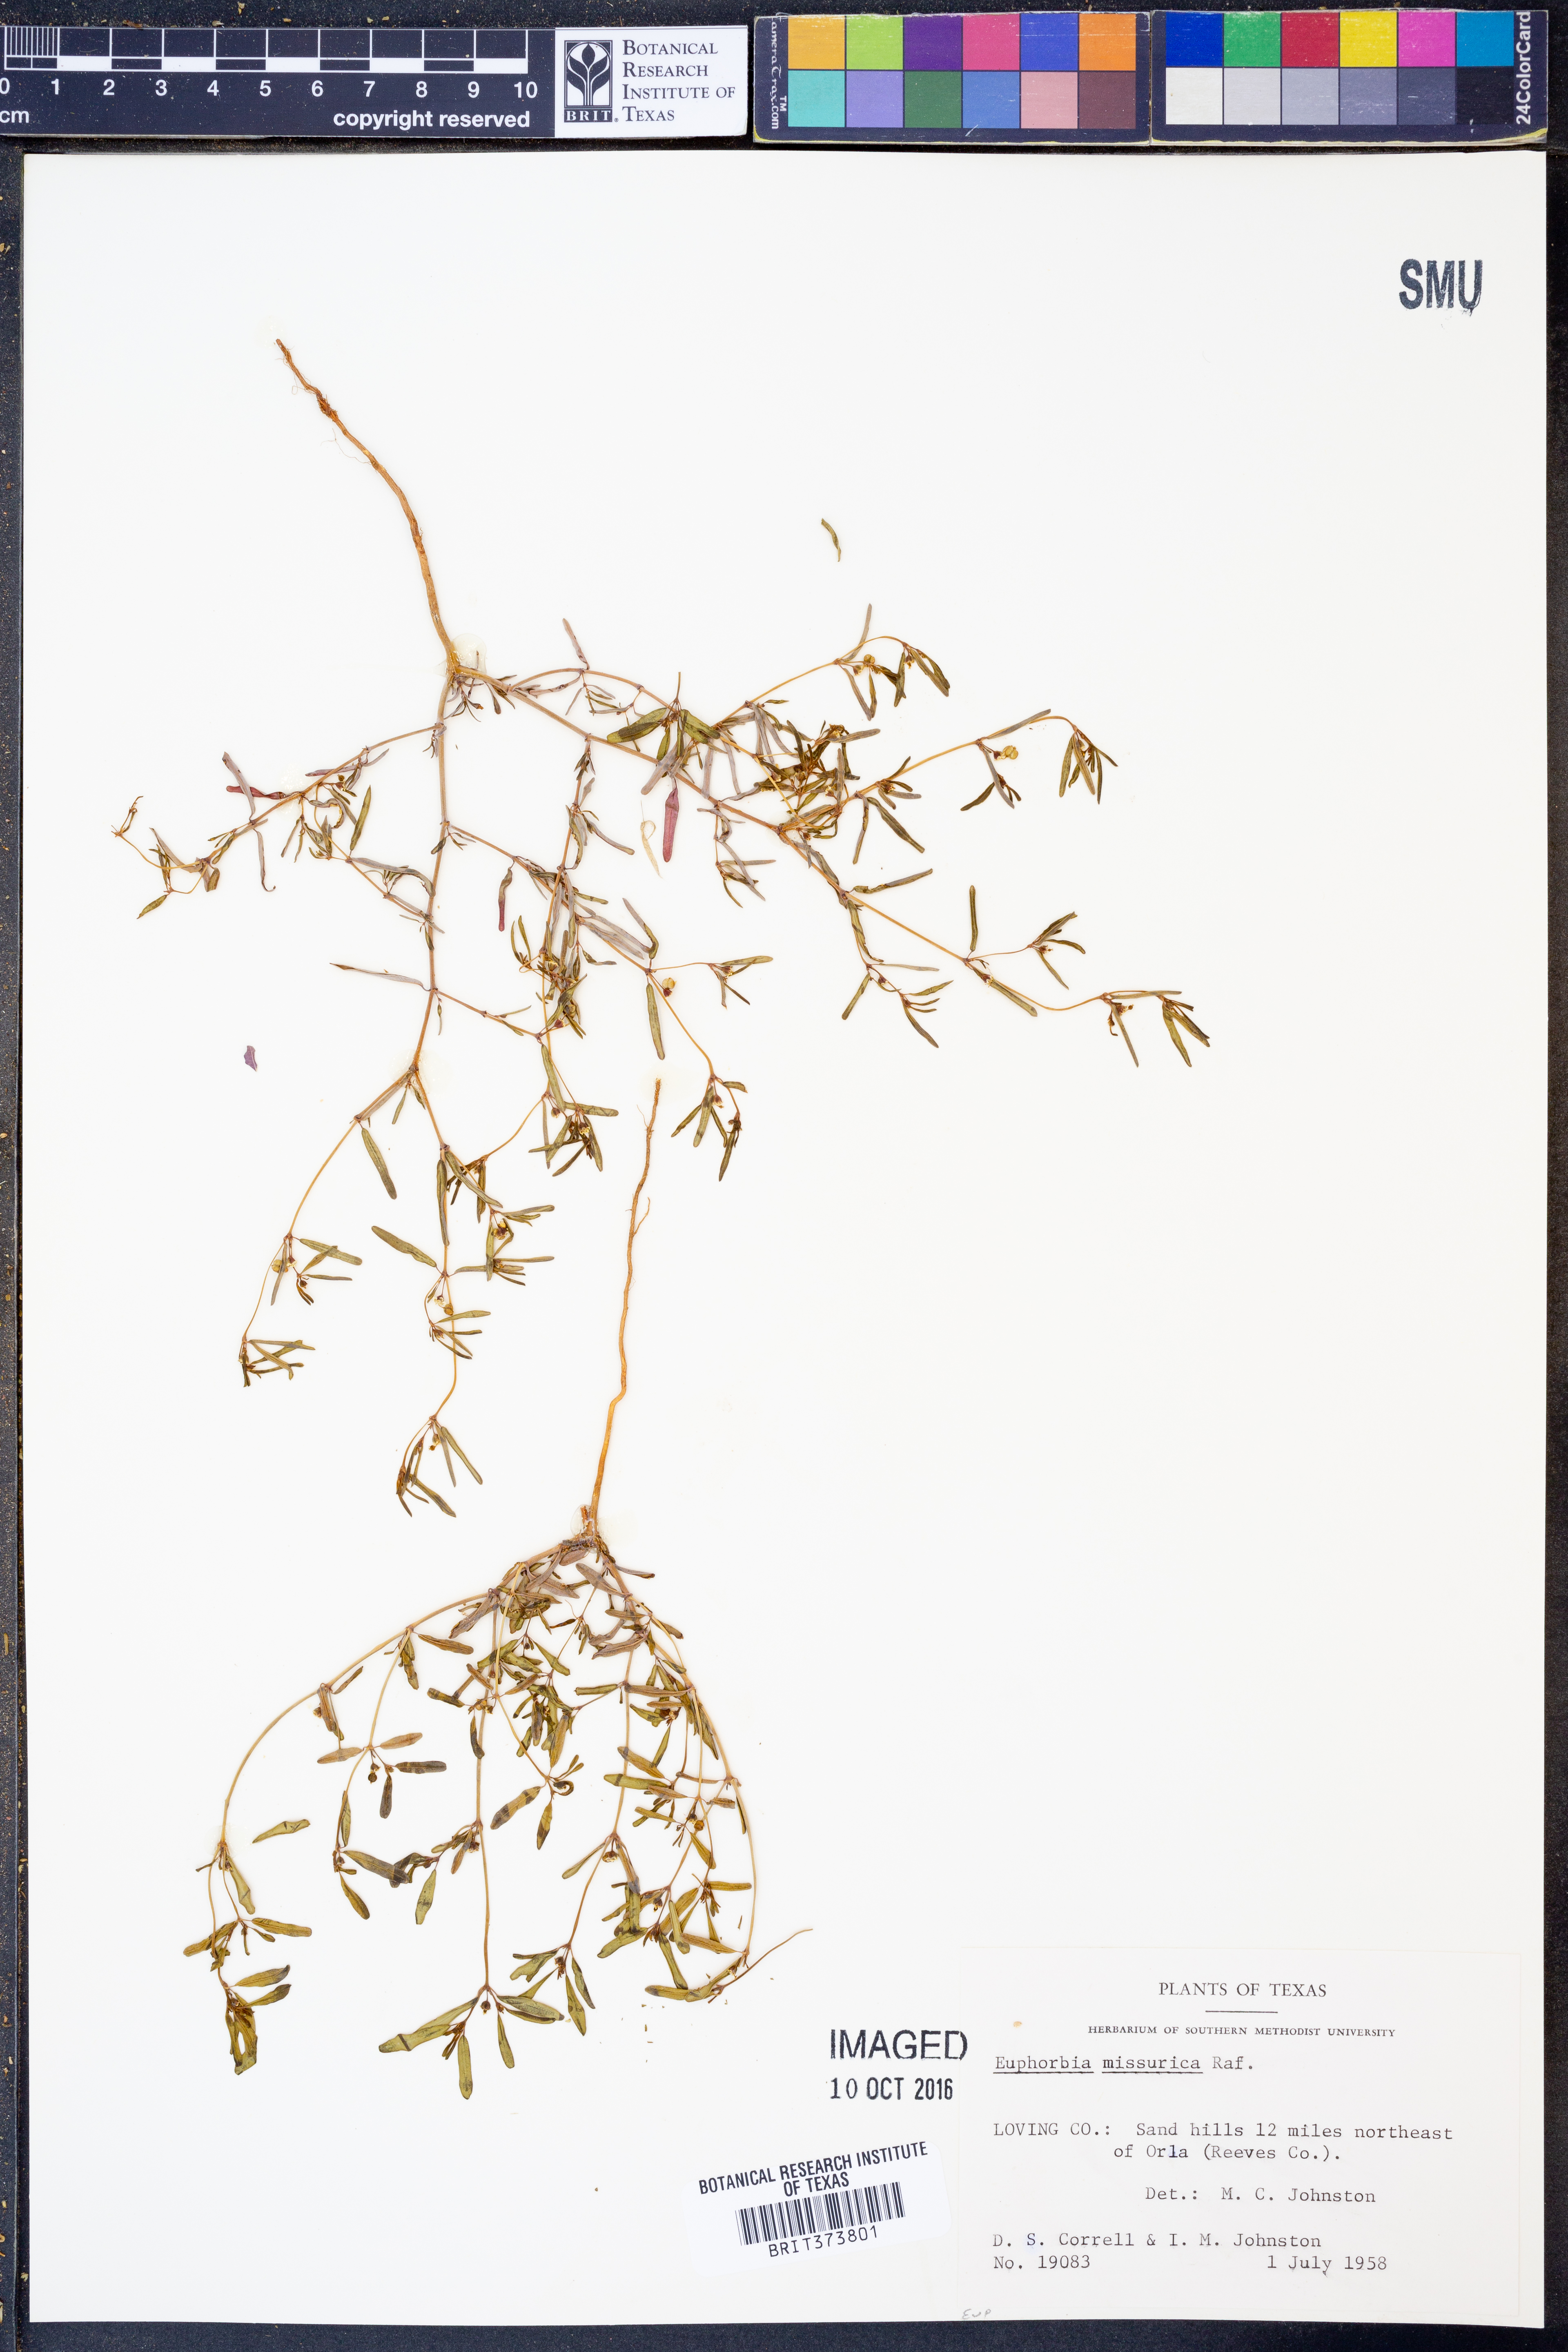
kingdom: Plantae
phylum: Tracheophyta
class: Magnoliopsida
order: Malpighiales
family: Euphorbiaceae
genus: Euphorbia
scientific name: Euphorbia missurica
